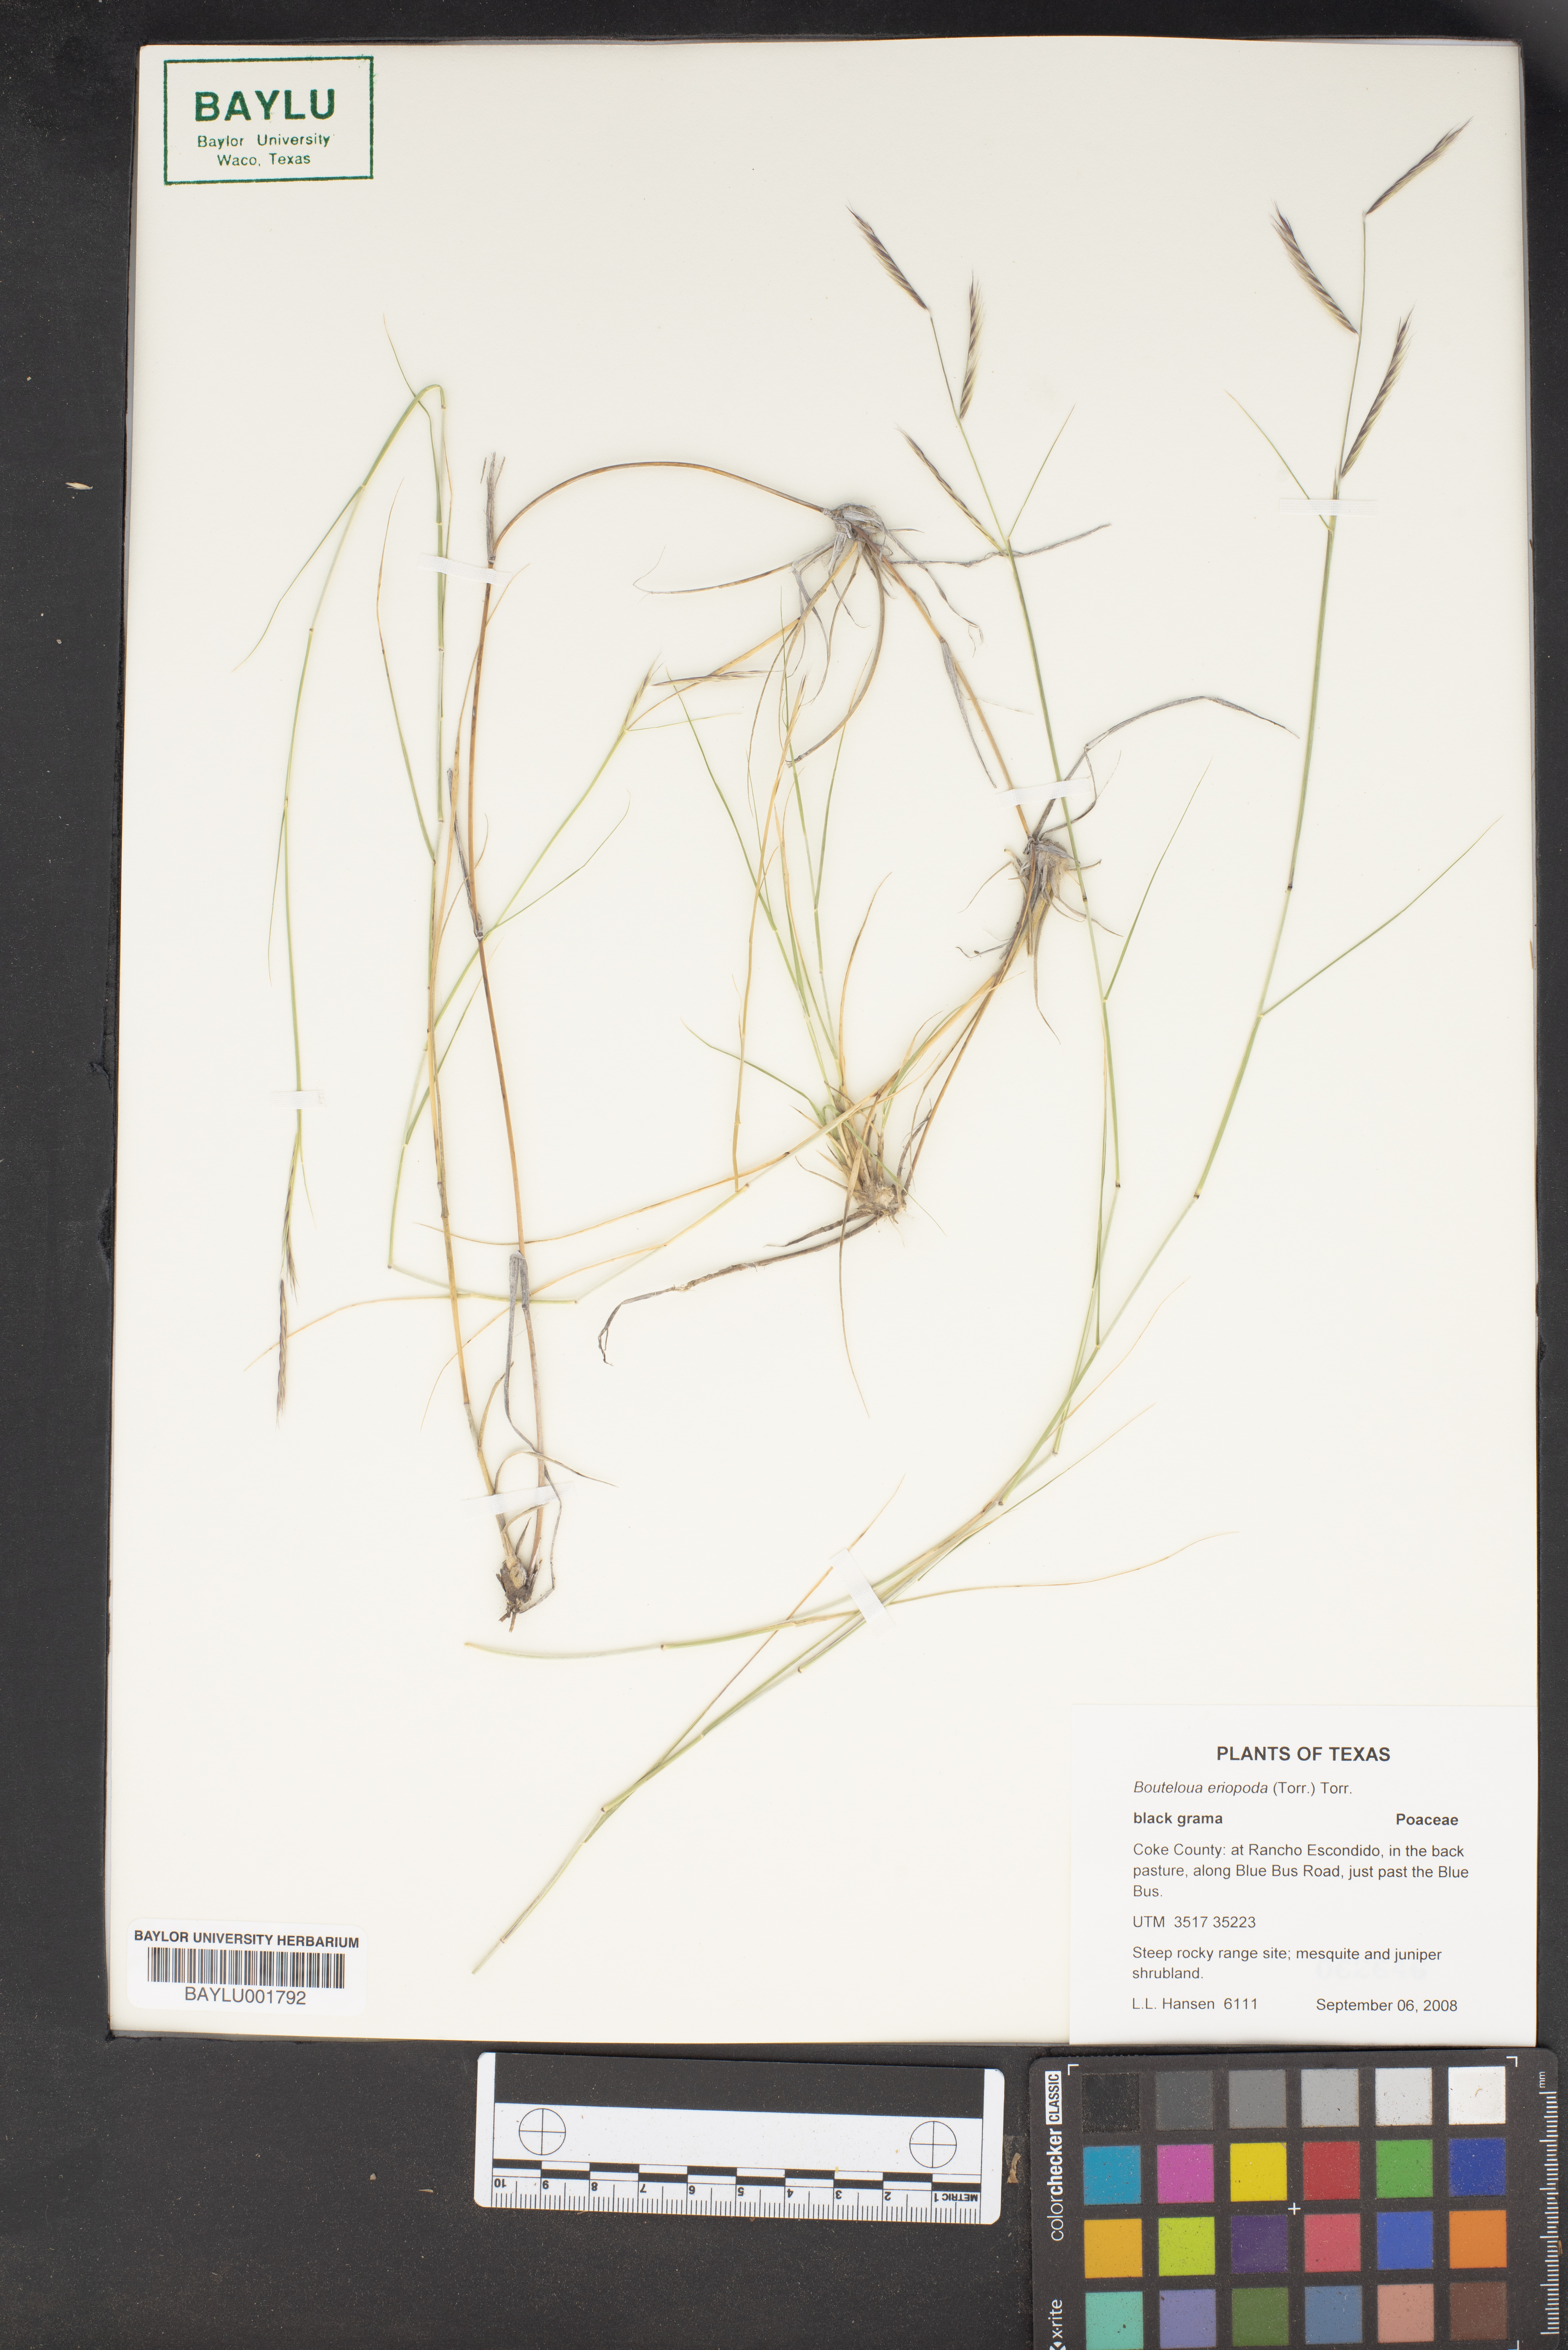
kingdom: Plantae
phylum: Tracheophyta
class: Liliopsida
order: Poales
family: Poaceae
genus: Bouteloua
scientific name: Bouteloua eriopoda
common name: Woolly foot grama
